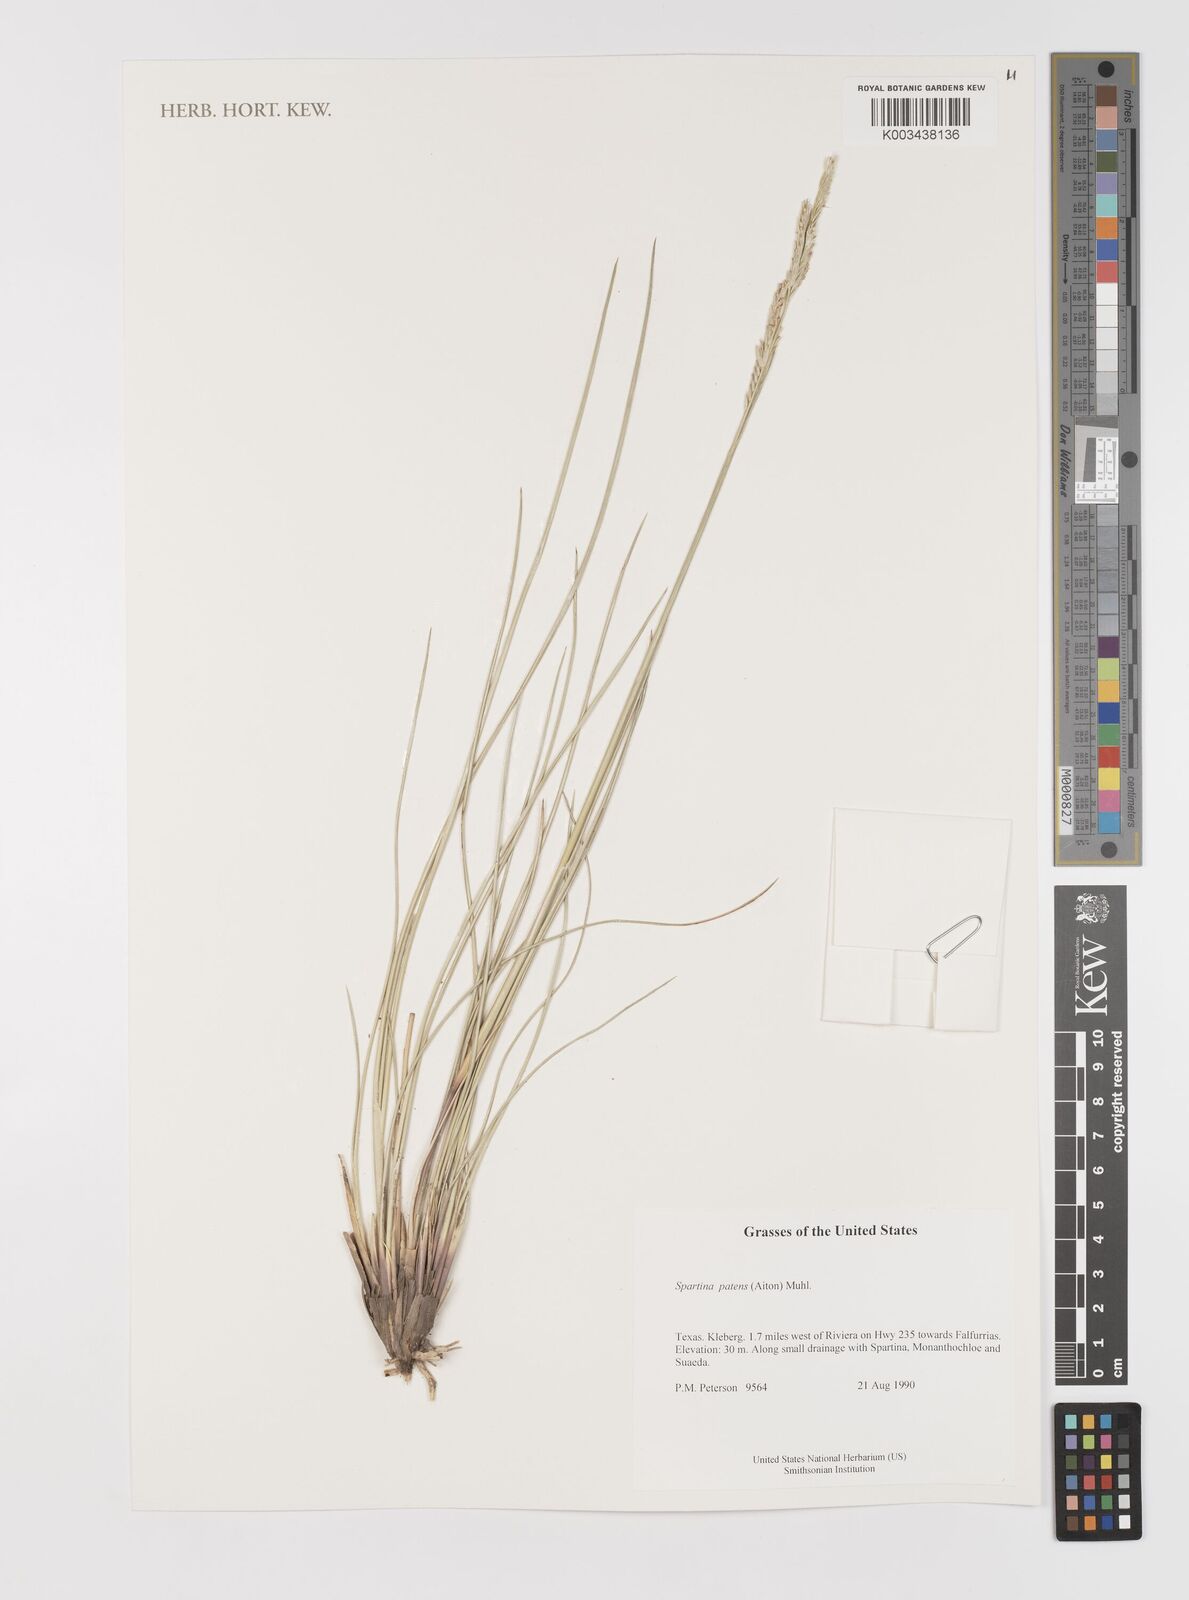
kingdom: Plantae
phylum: Tracheophyta
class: Liliopsida
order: Poales
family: Poaceae
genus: Sporobolus
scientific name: Sporobolus pumilus
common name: Highwater grass
